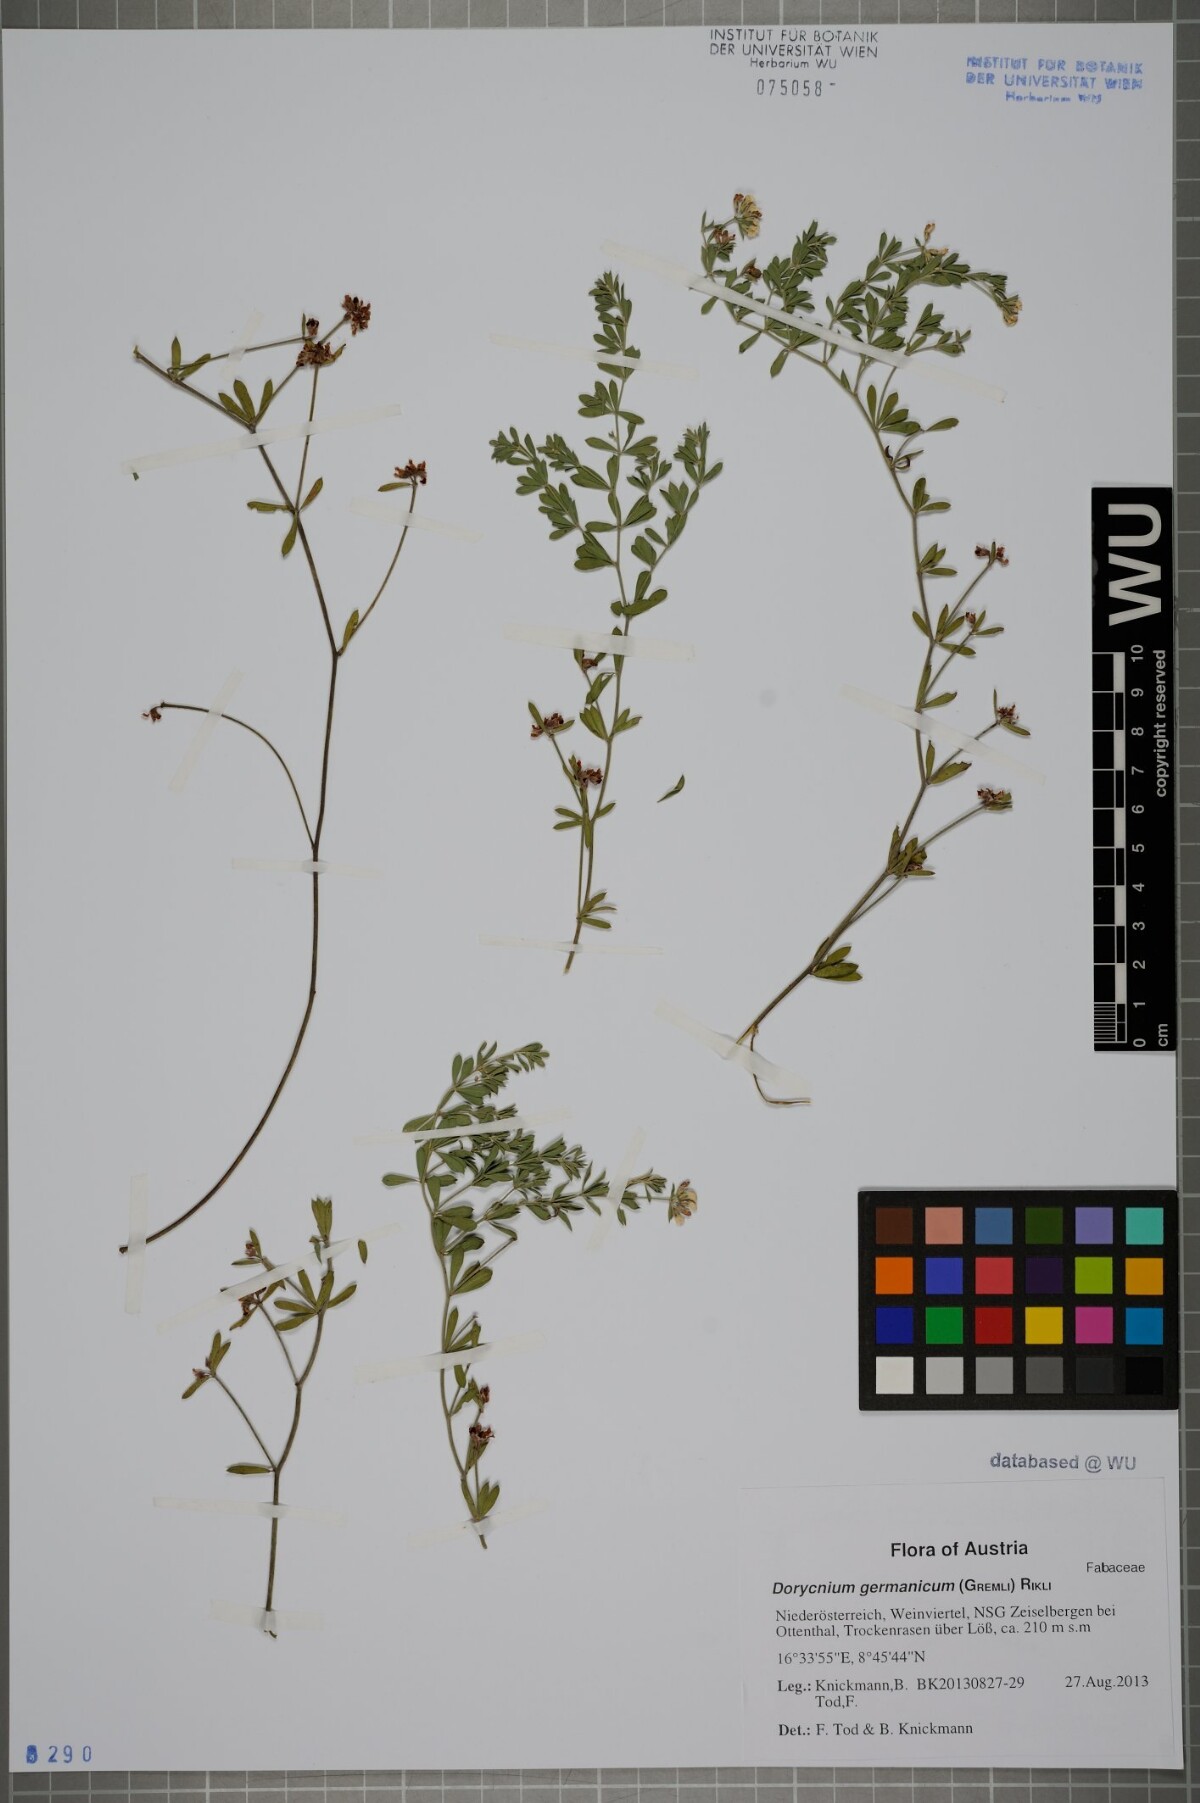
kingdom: Plantae
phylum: Tracheophyta
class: Magnoliopsida
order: Fabales
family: Fabaceae
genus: Lotus
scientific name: Lotus germanicus
